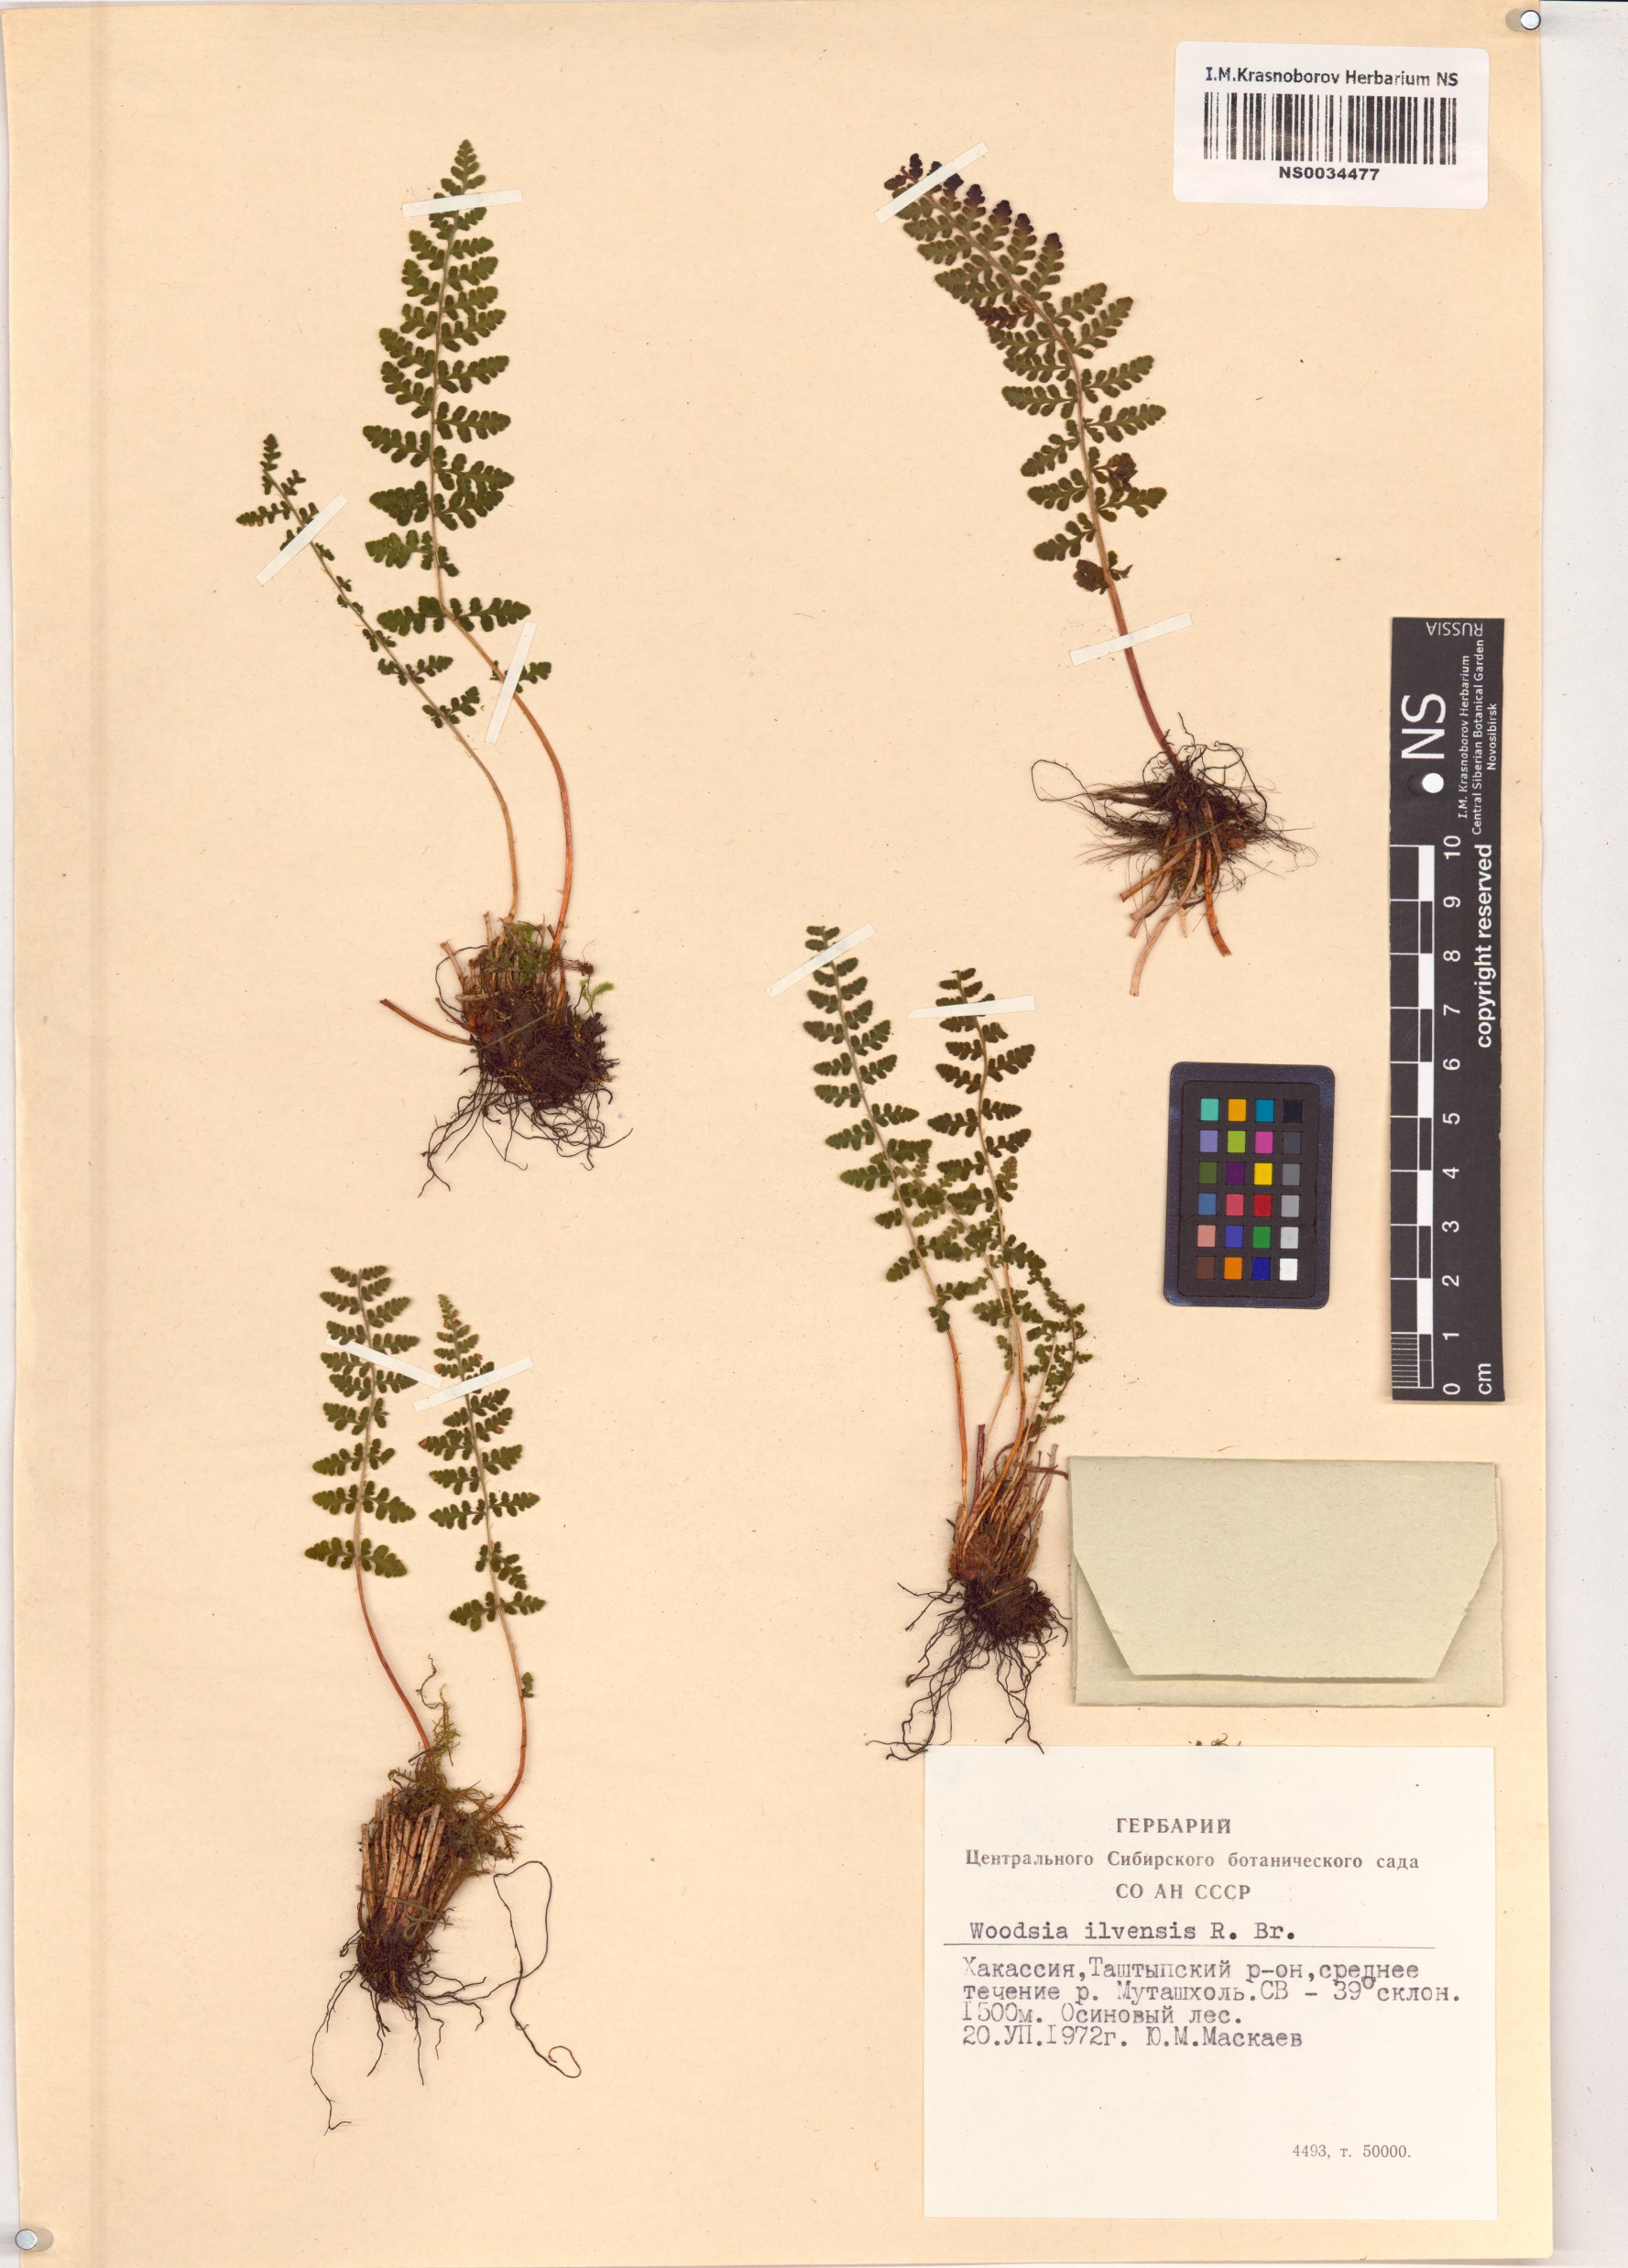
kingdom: Plantae
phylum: Tracheophyta
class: Polypodiopsida
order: Polypodiales
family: Woodsiaceae
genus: Woodsia
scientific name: Woodsia ilvensis
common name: Fragrant woodsia
